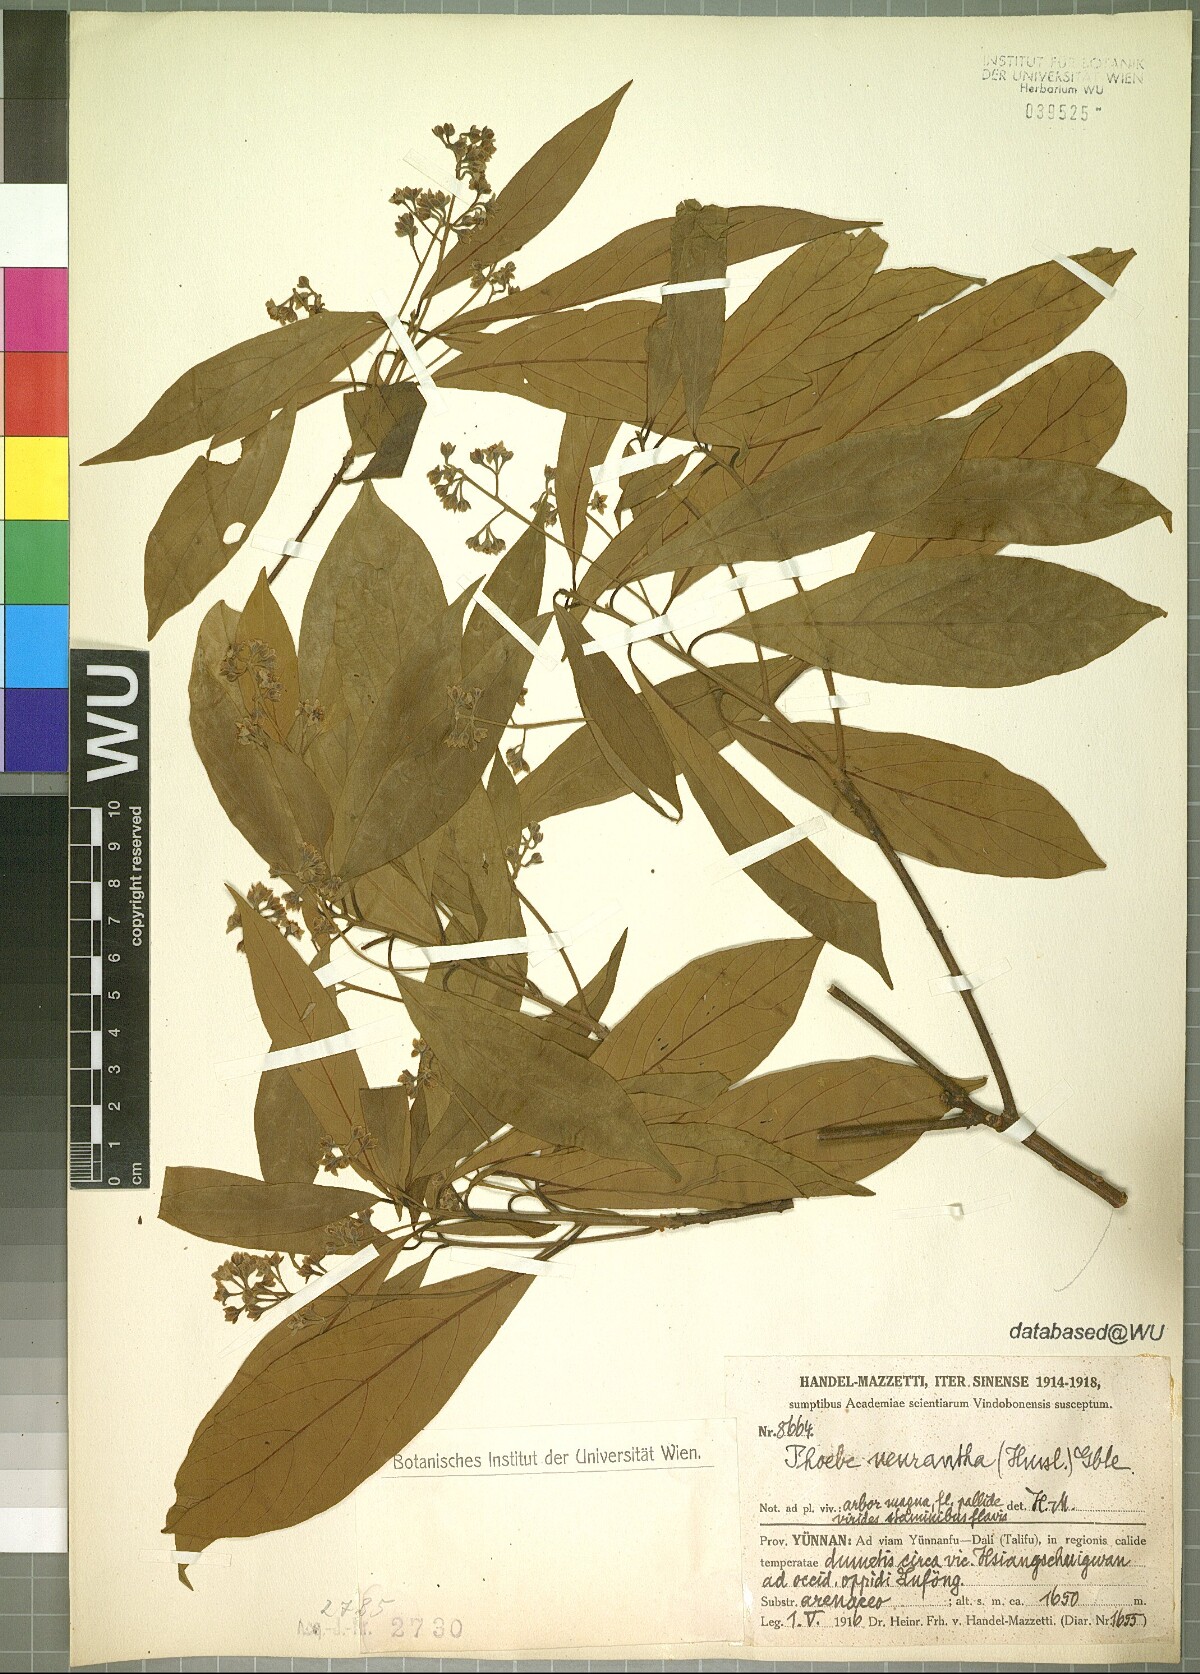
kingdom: Plantae
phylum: Tracheophyta
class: Magnoliopsida
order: Laurales
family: Lauraceae
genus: Phoebe
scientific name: Phoebe neurantha
